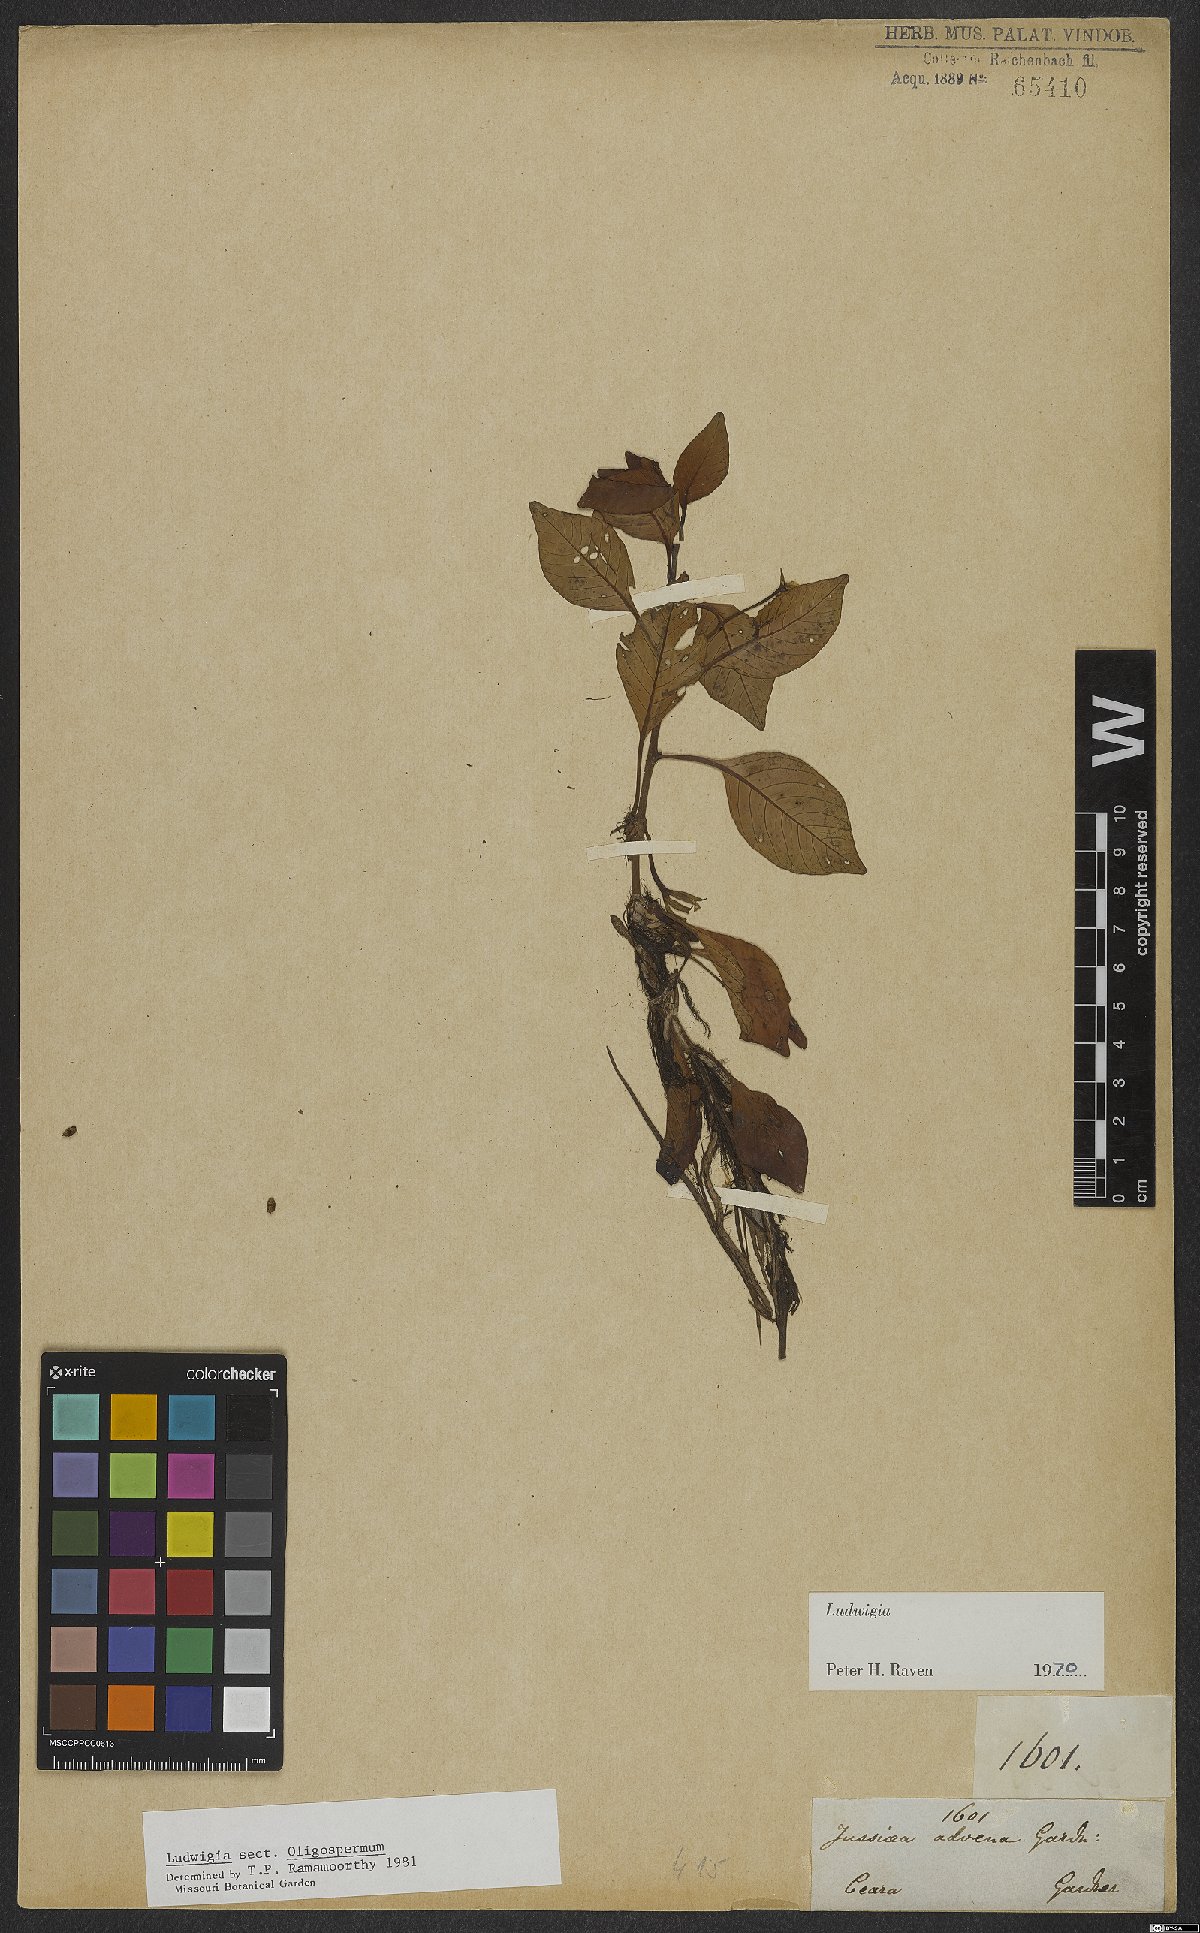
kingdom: Plantae
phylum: Tracheophyta
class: Magnoliopsida
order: Myrtales
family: Onagraceae
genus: Ludwigia
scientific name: Ludwigia
